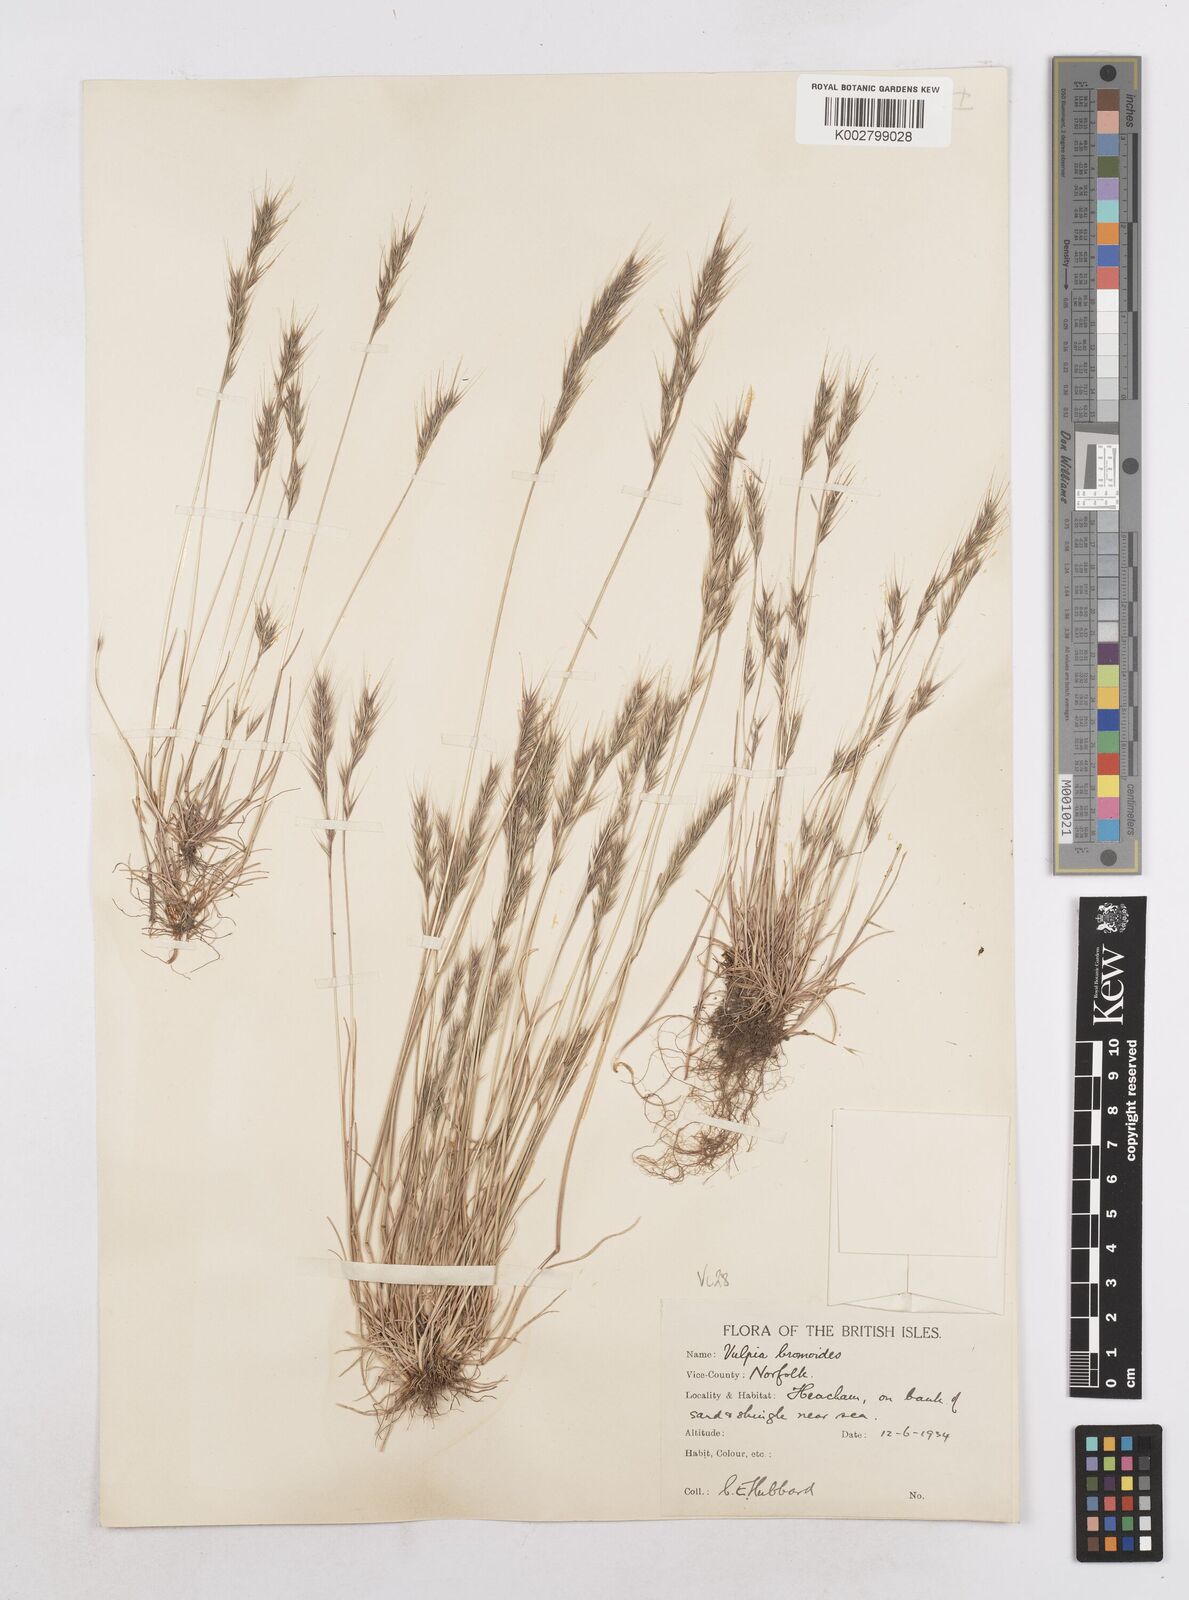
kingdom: Plantae
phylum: Tracheophyta
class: Liliopsida
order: Poales
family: Poaceae
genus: Festuca
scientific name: Festuca bromoides
